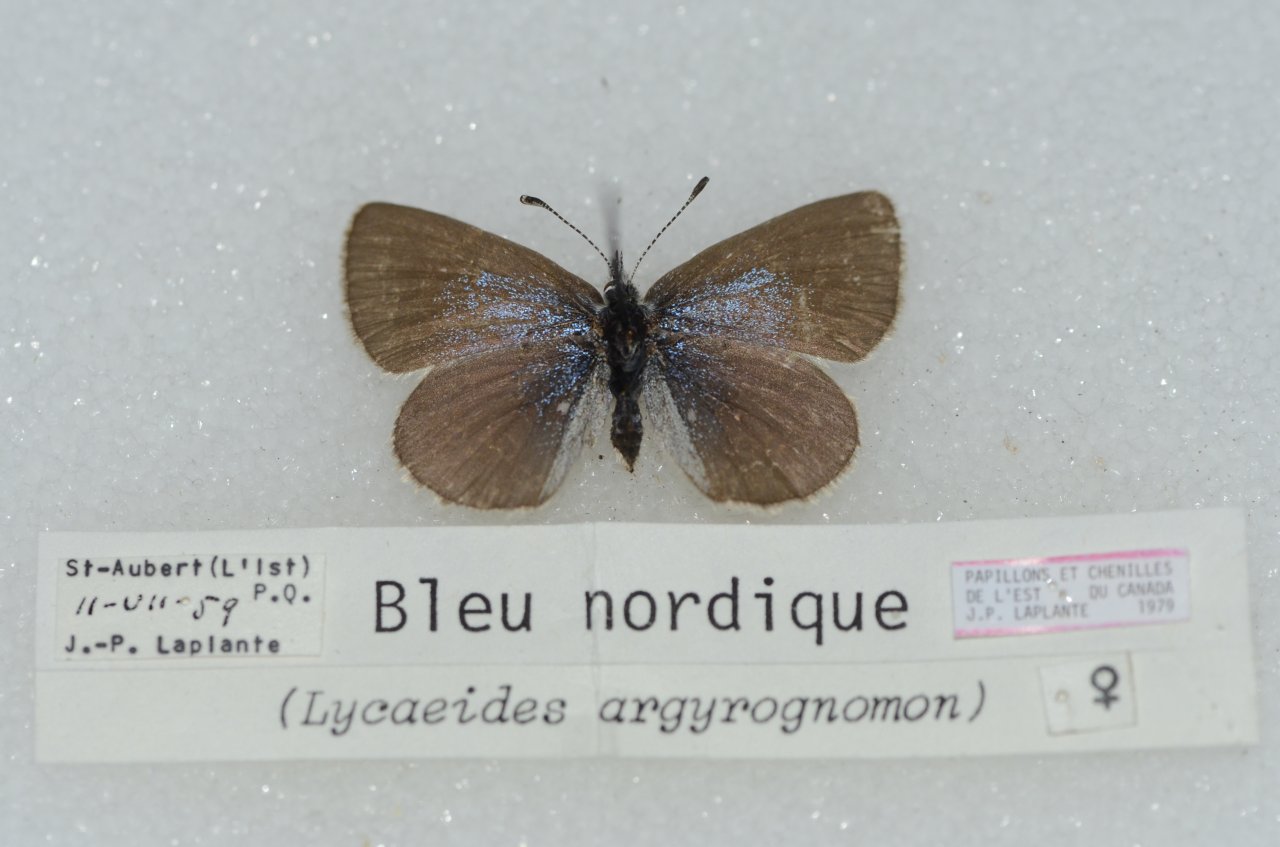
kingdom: Animalia
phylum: Arthropoda
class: Insecta
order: Lepidoptera
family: Lycaenidae
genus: Lycaeides
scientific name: Lycaeides idas
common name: Northern Blue
